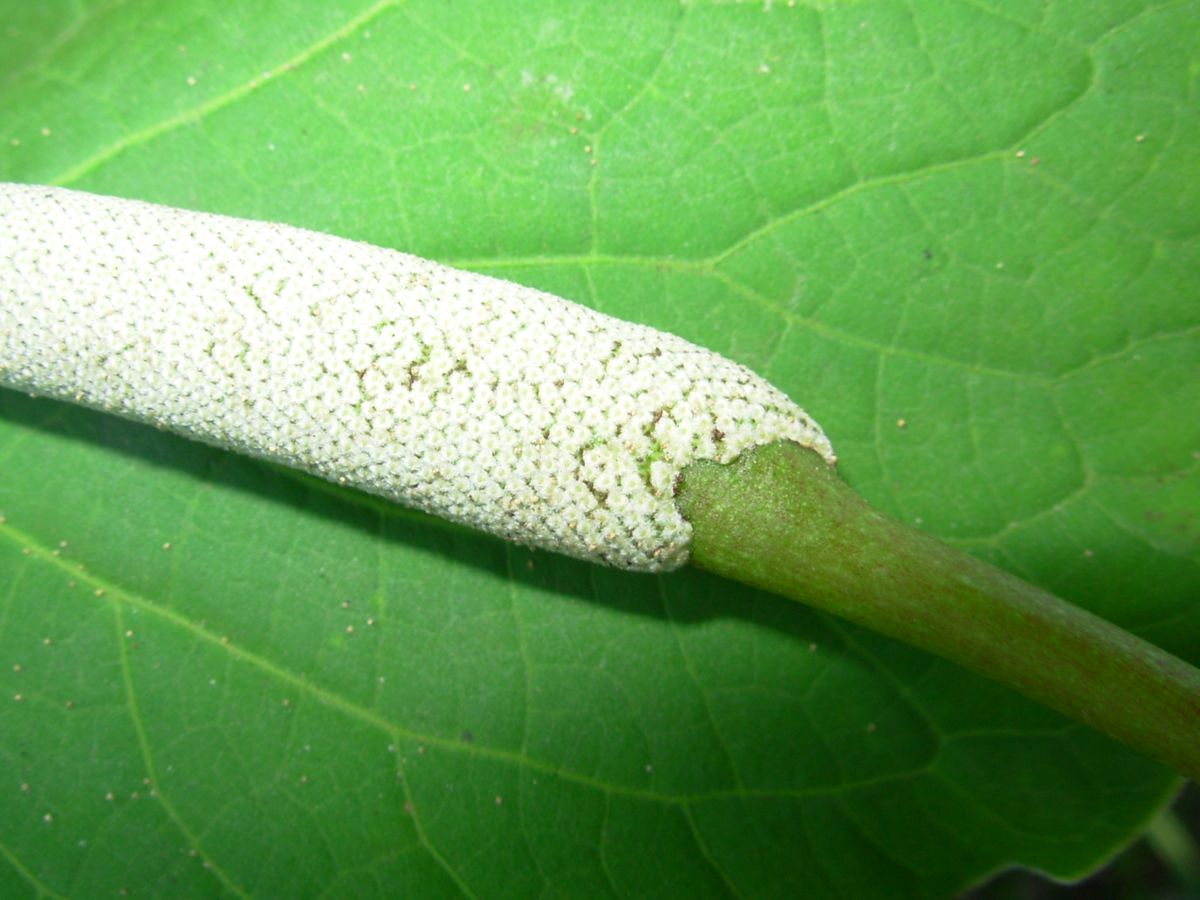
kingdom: Plantae
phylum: Tracheophyta
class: Magnoliopsida
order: Piperales
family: Piperaceae
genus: Piper
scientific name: Piper auritum
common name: Vera cruz pepper
